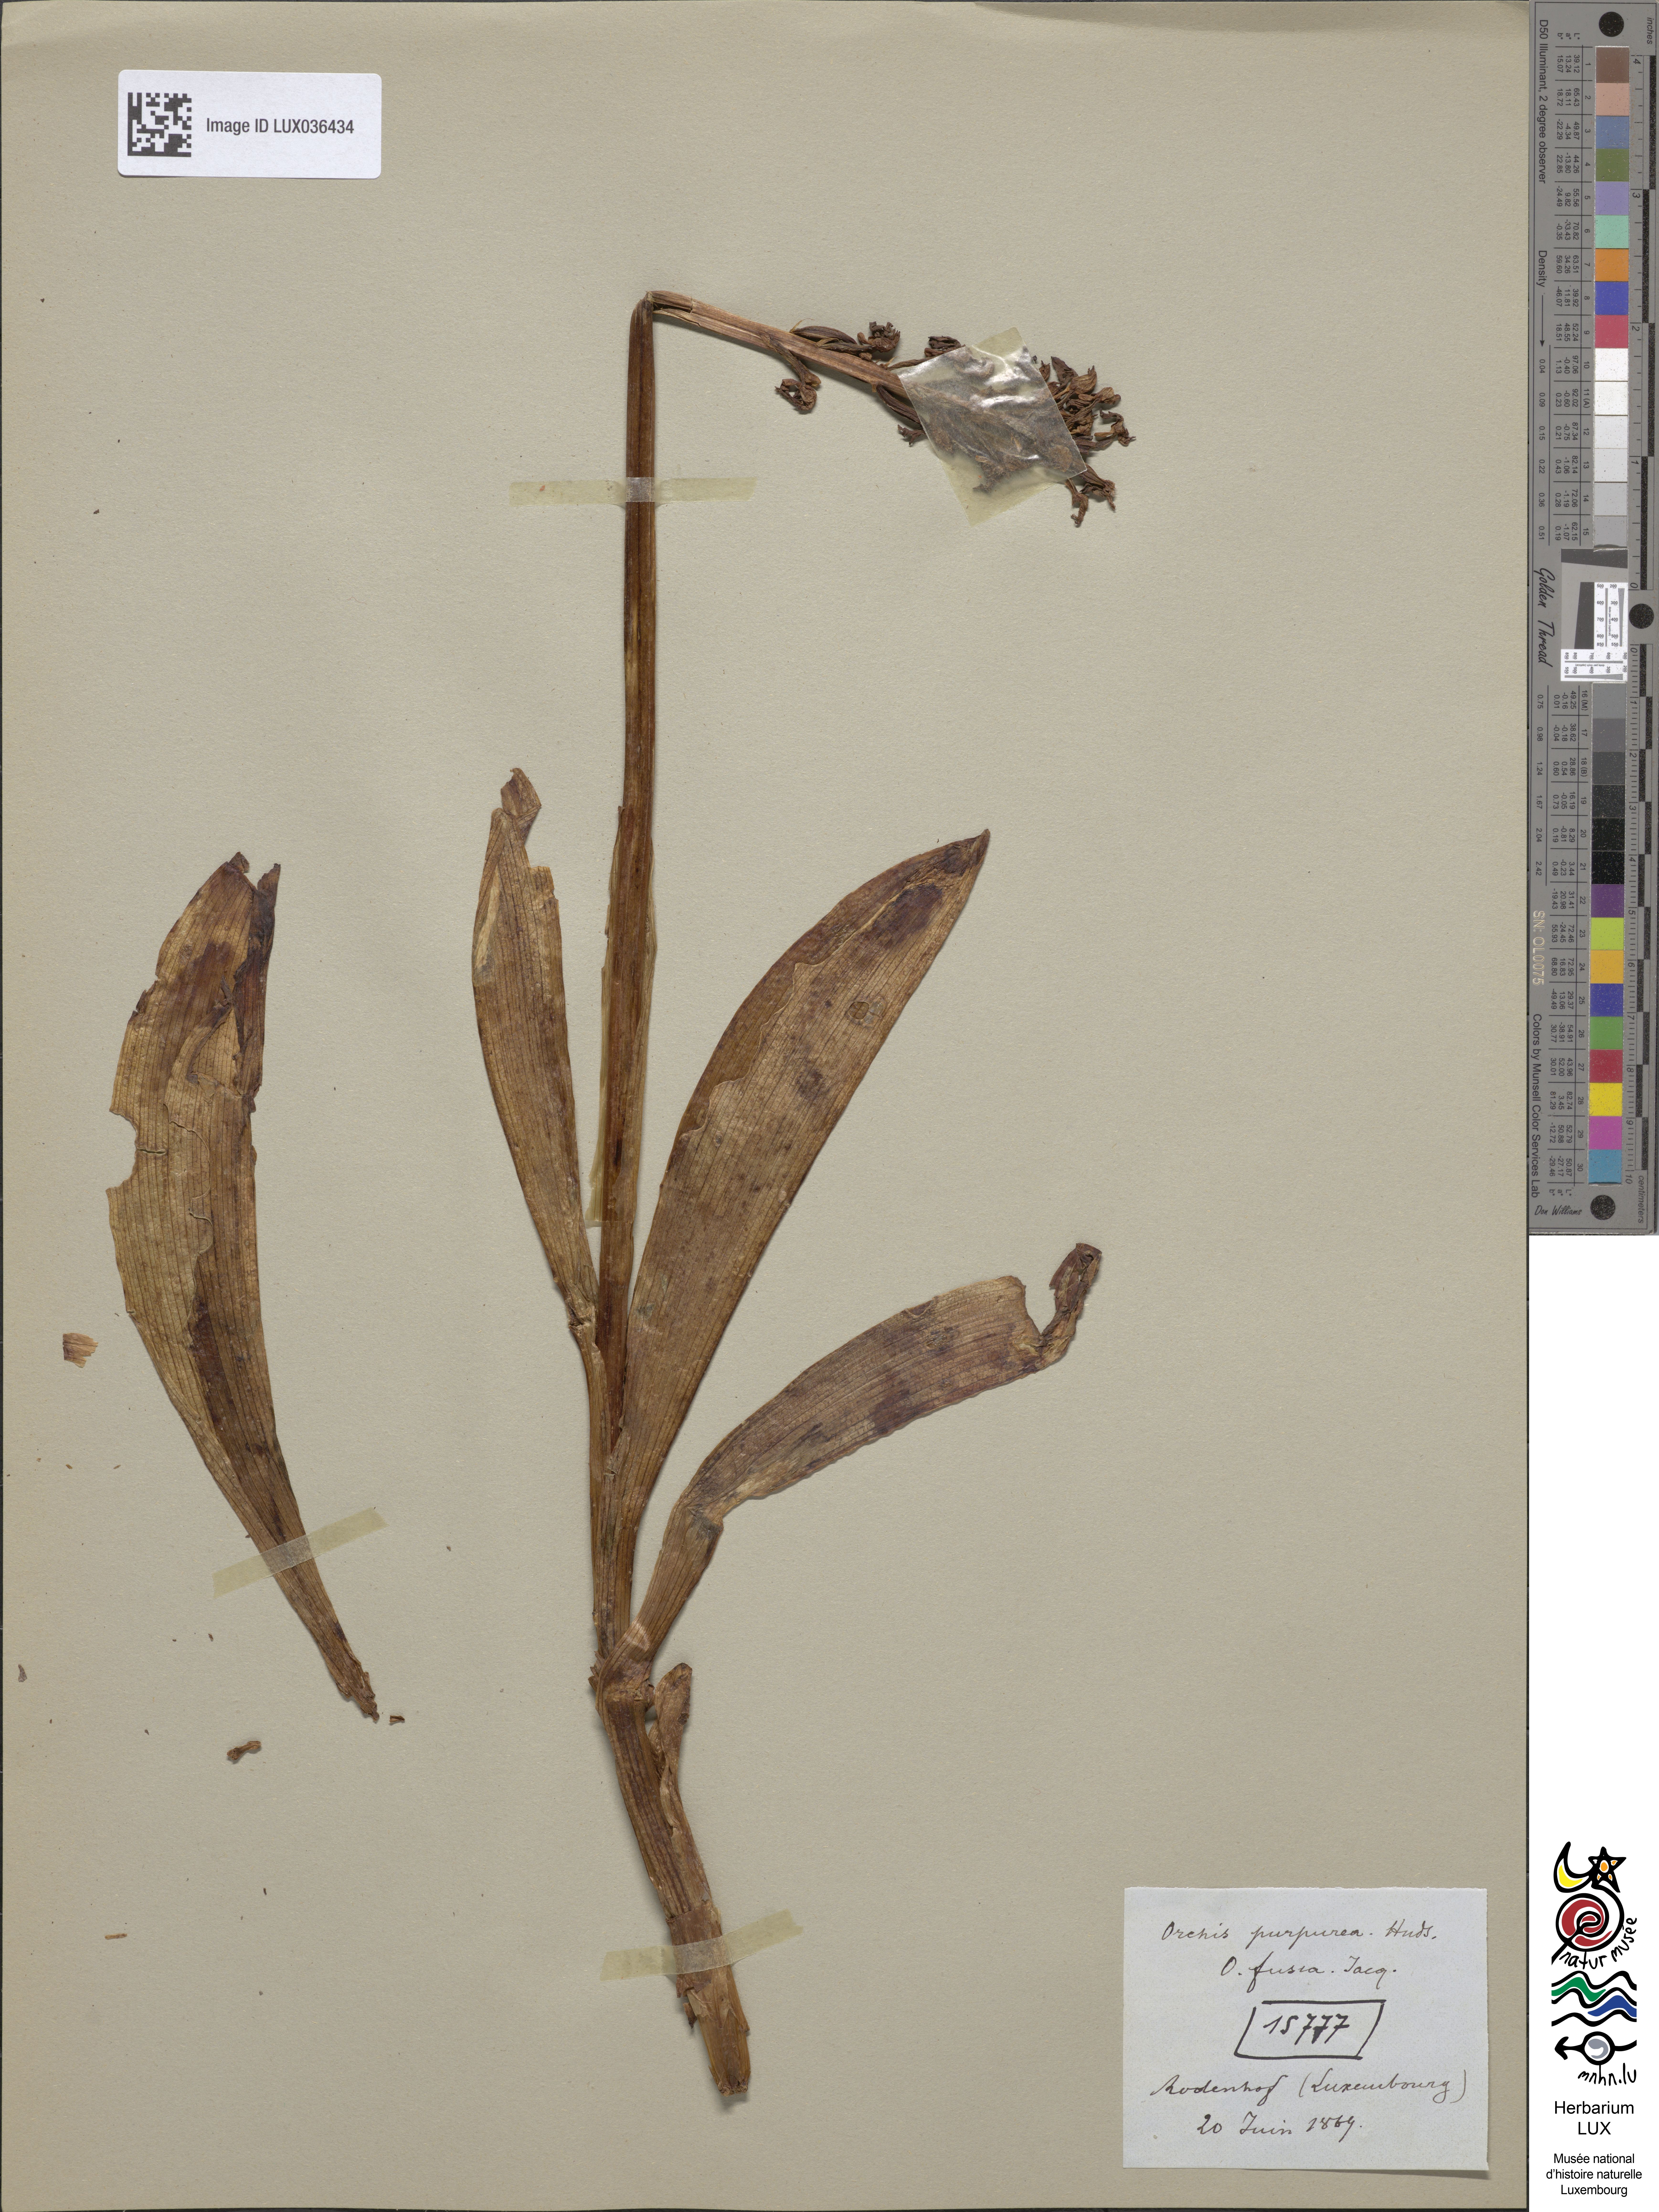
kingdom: Plantae
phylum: Tracheophyta
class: Liliopsida
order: Asparagales
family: Orchidaceae
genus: Orchis
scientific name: Orchis purpurea
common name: Lady orchid
